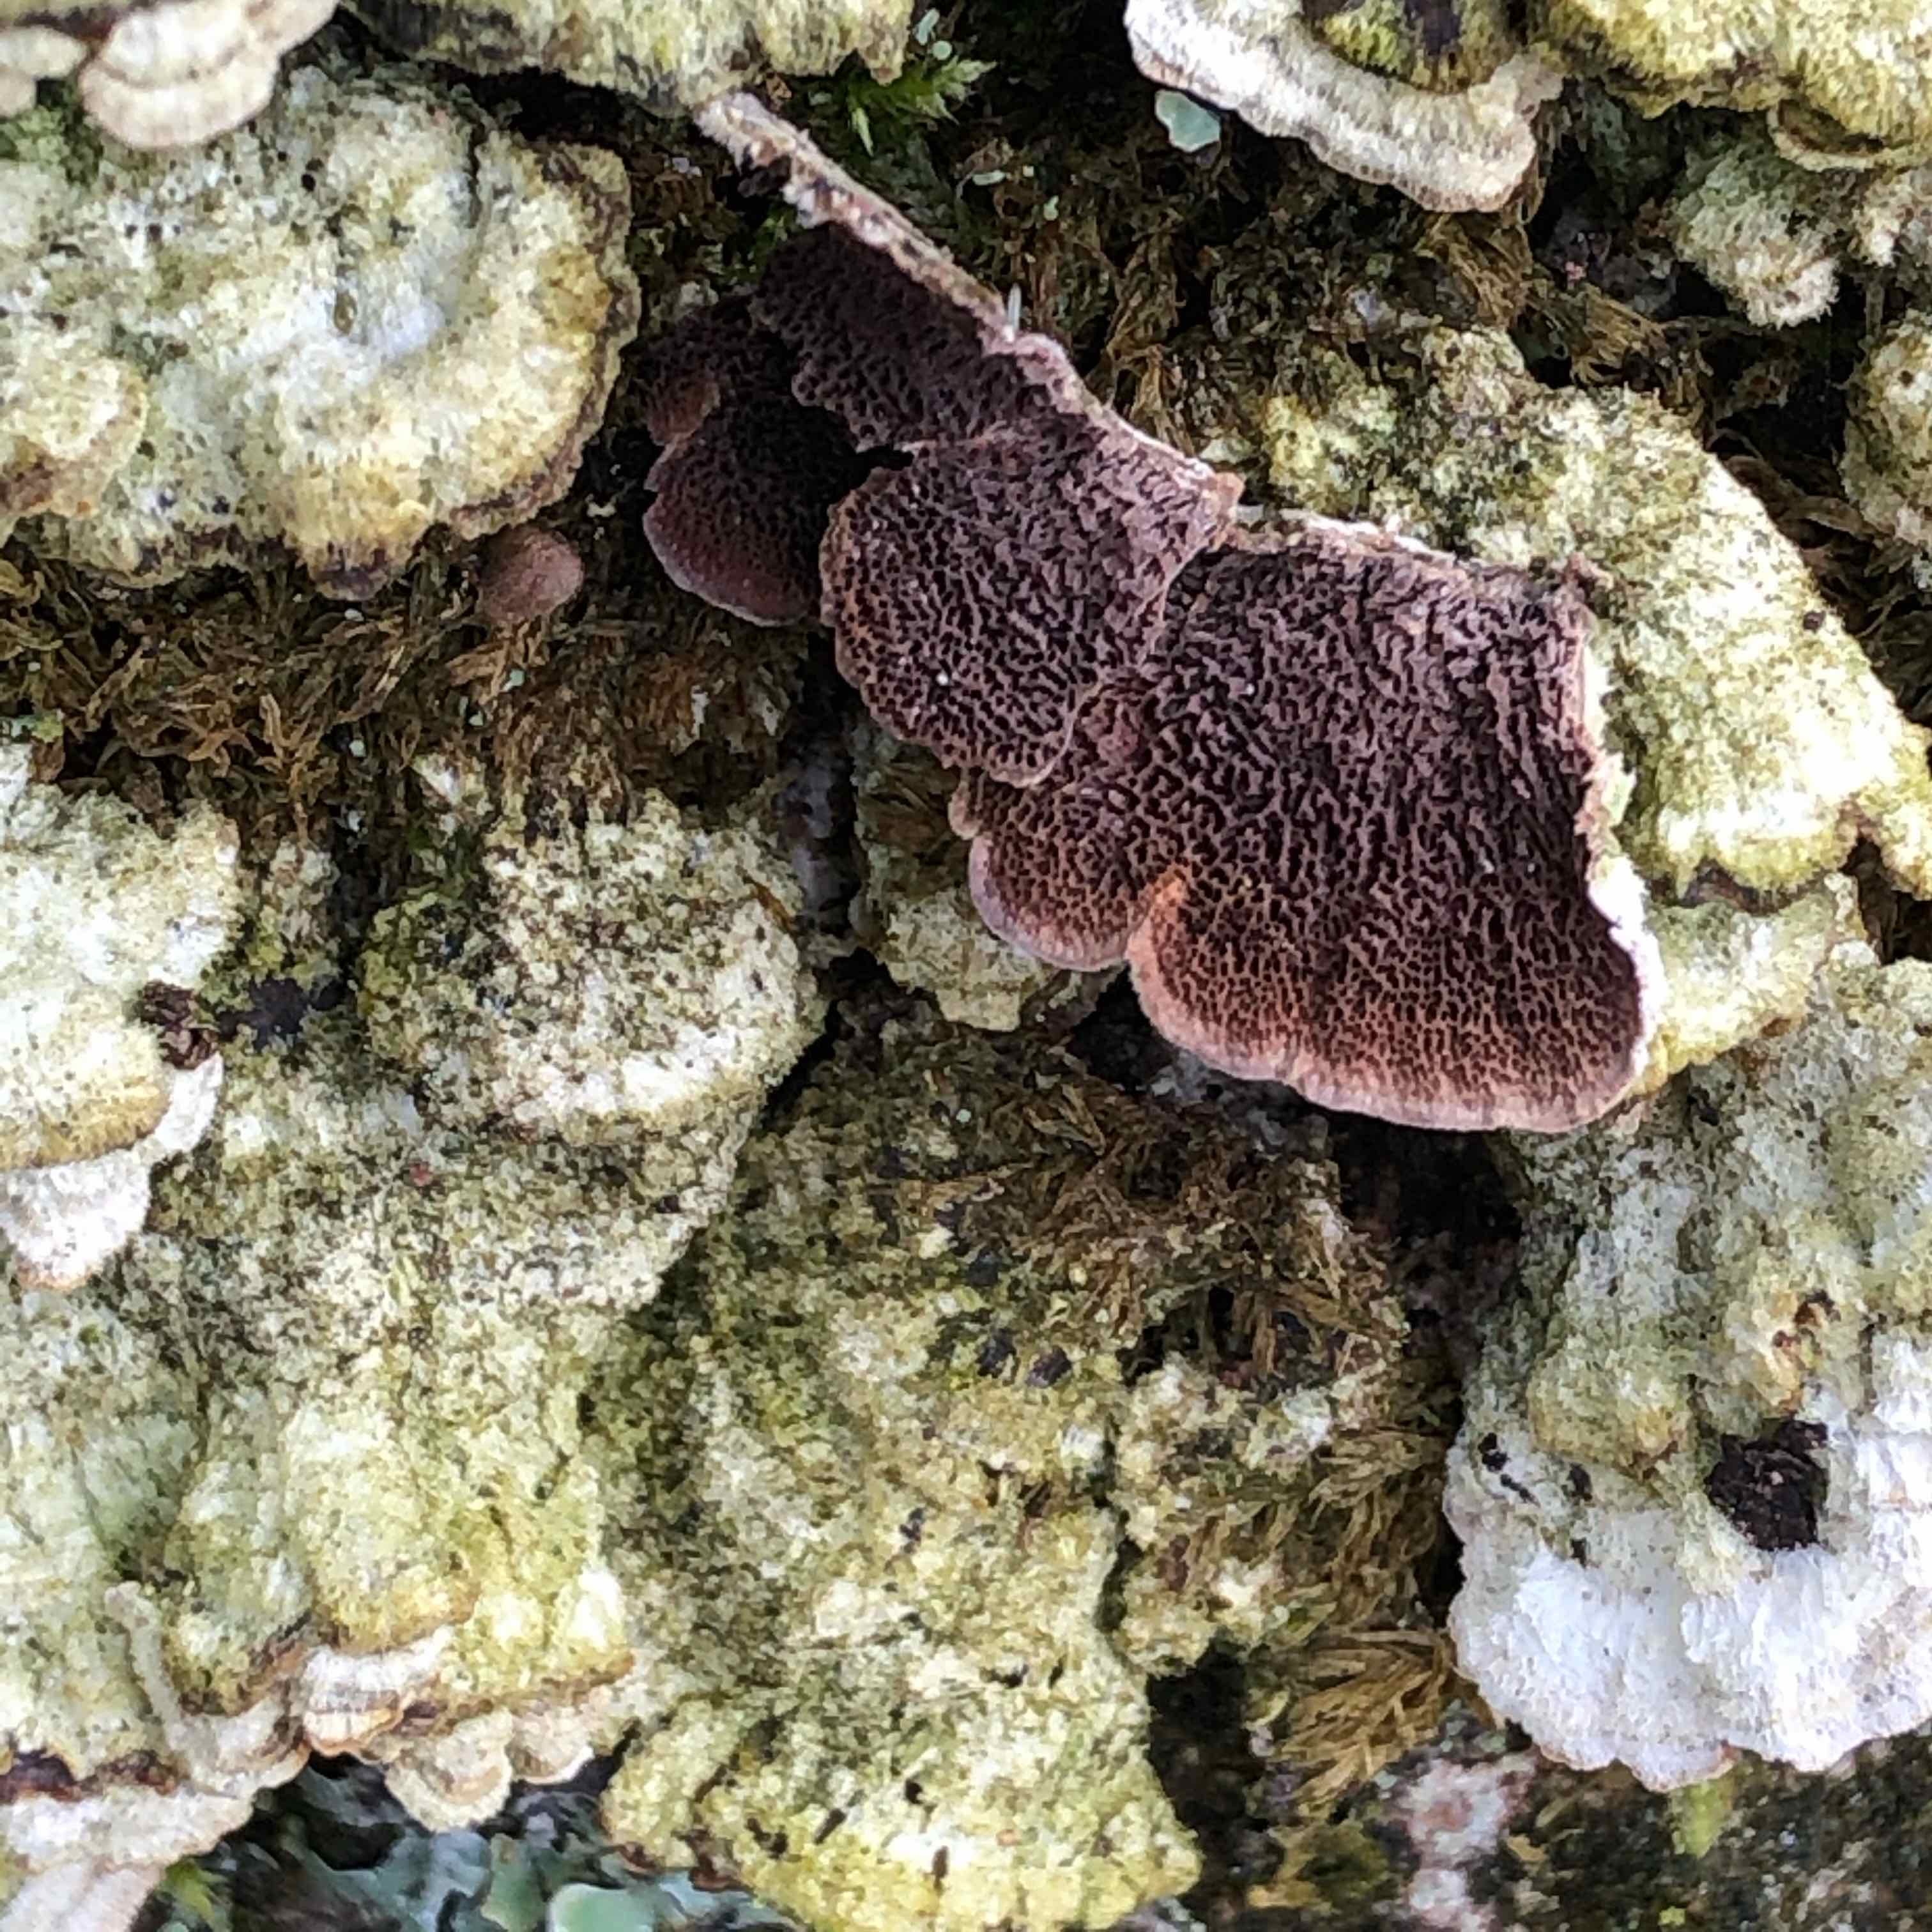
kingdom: Fungi
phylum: Basidiomycota
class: Agaricomycetes
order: Hymenochaetales
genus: Trichaptum
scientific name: Trichaptum fuscoviolaceum
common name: tandet violporesvamp
